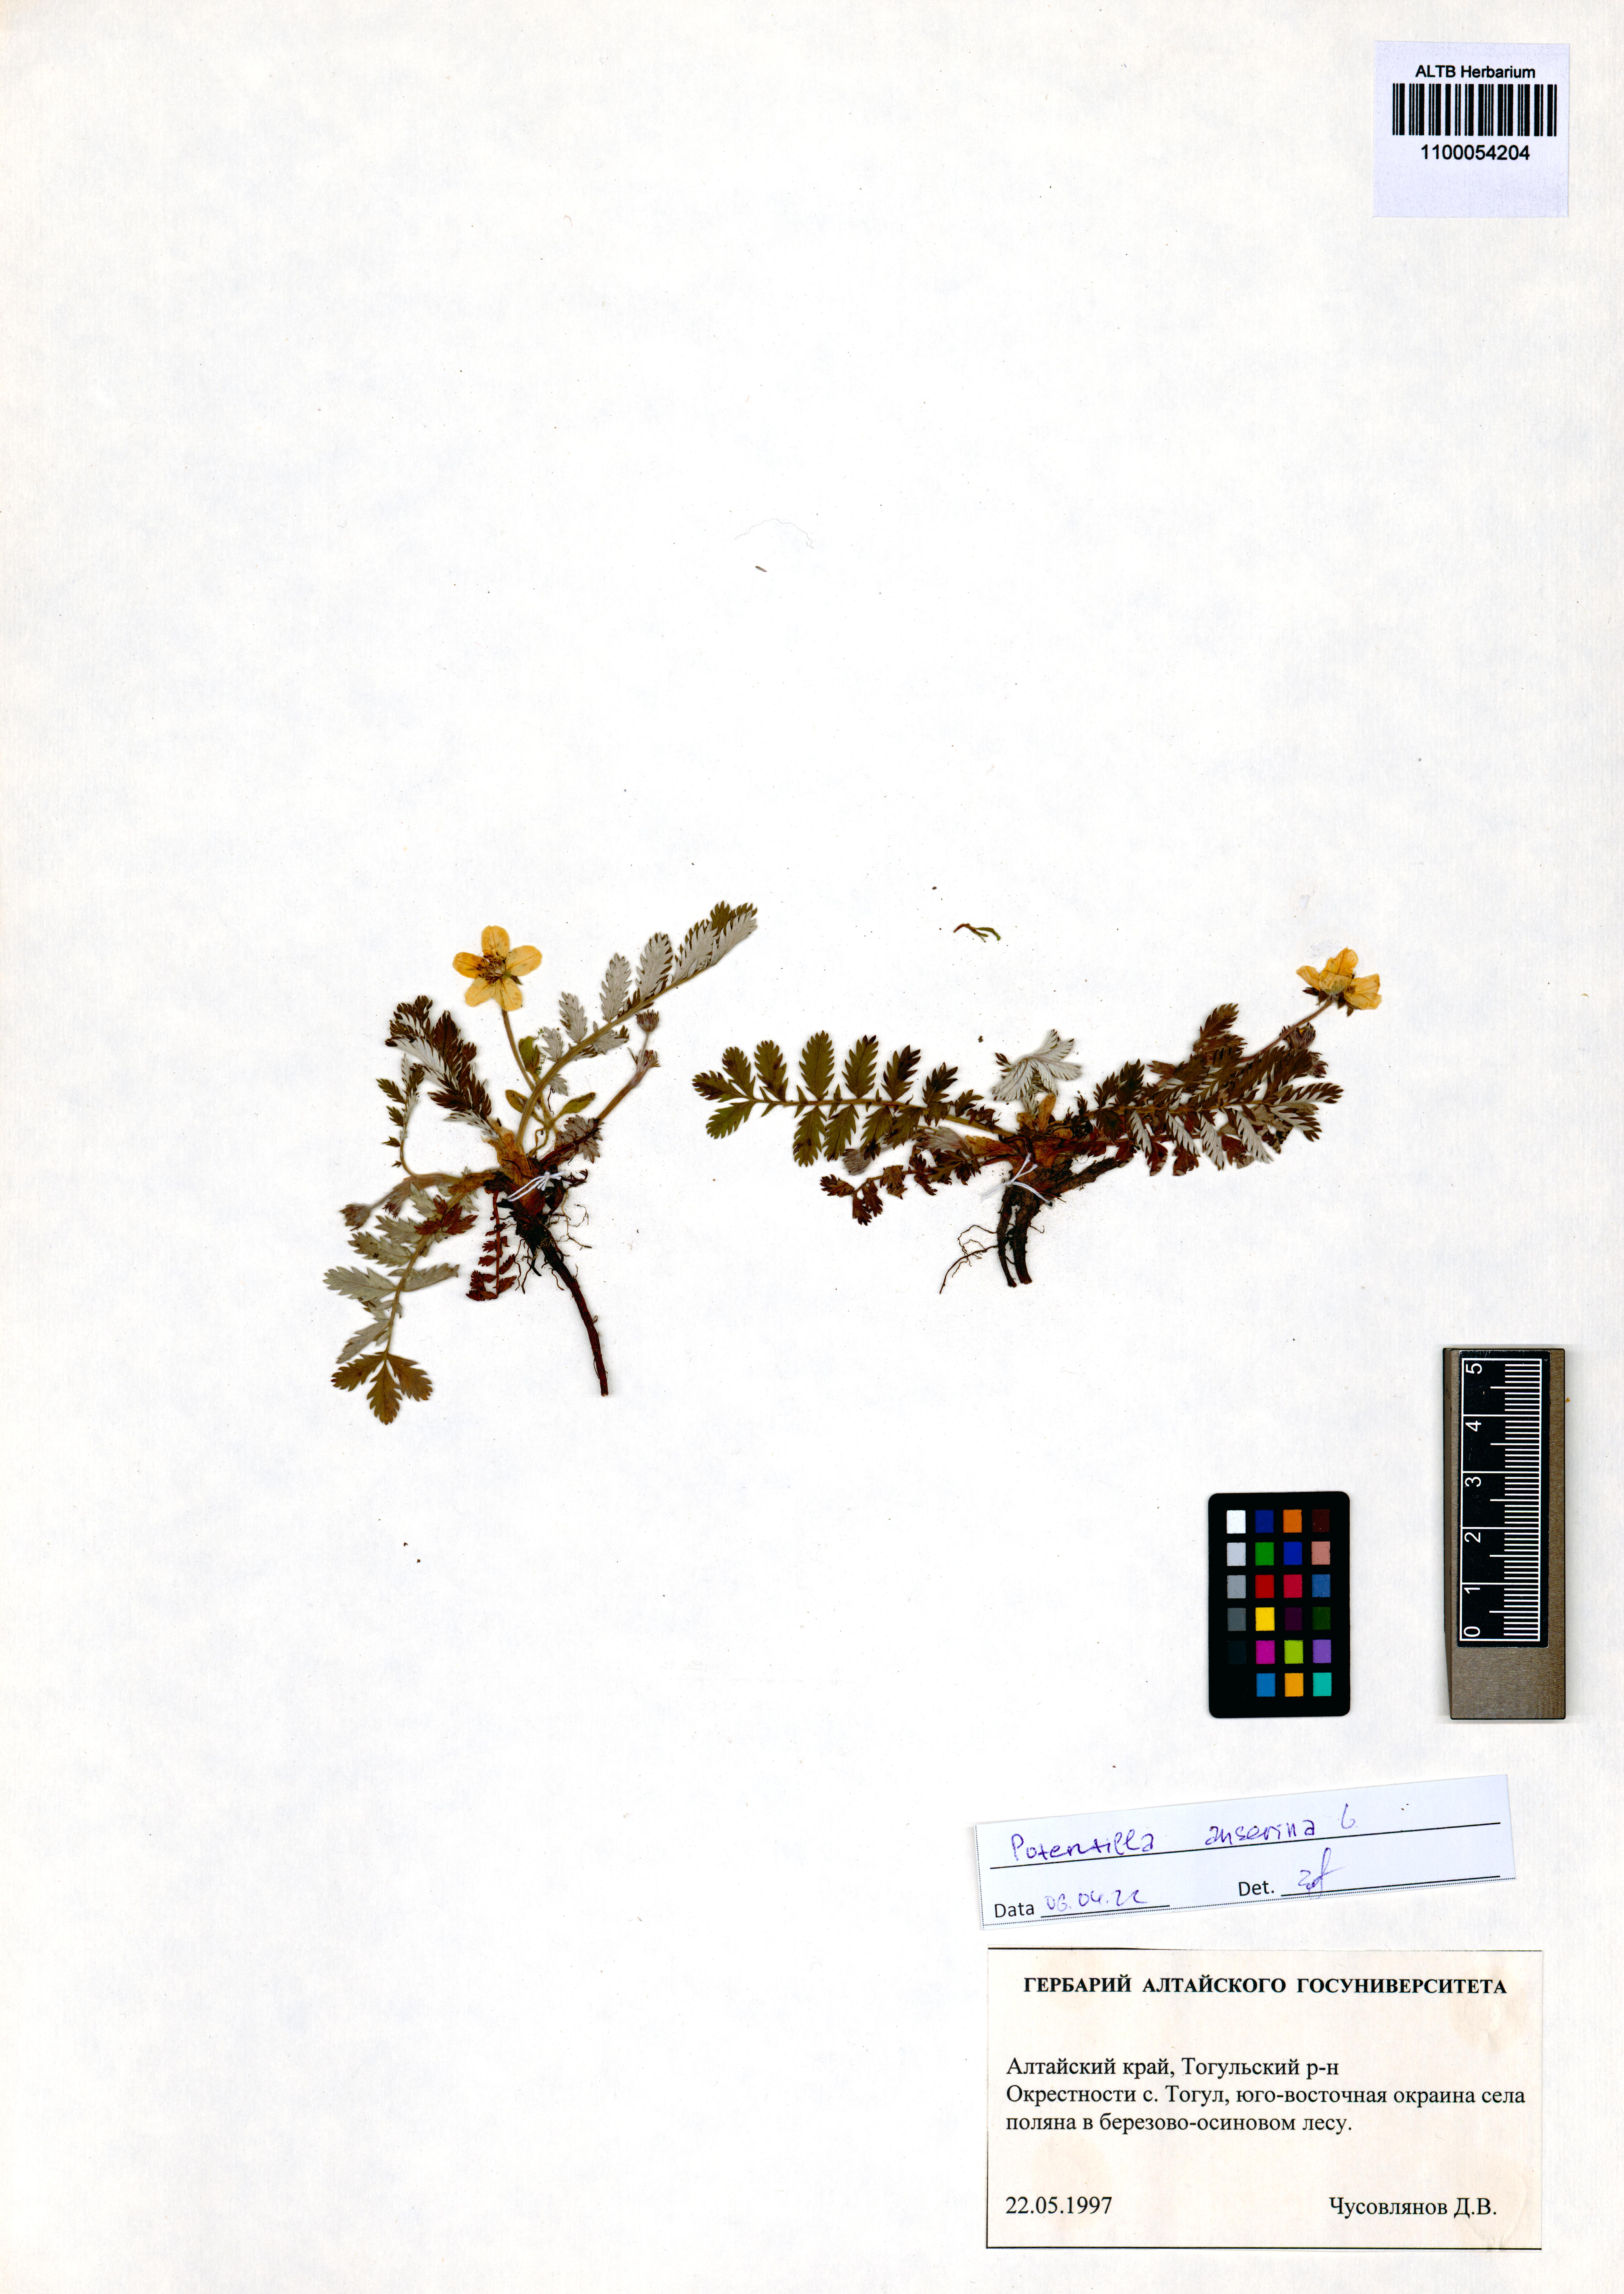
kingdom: Plantae
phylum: Tracheophyta
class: Magnoliopsida
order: Rosales
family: Rosaceae
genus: Argentina
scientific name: Argentina anserina
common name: Common silverweed
